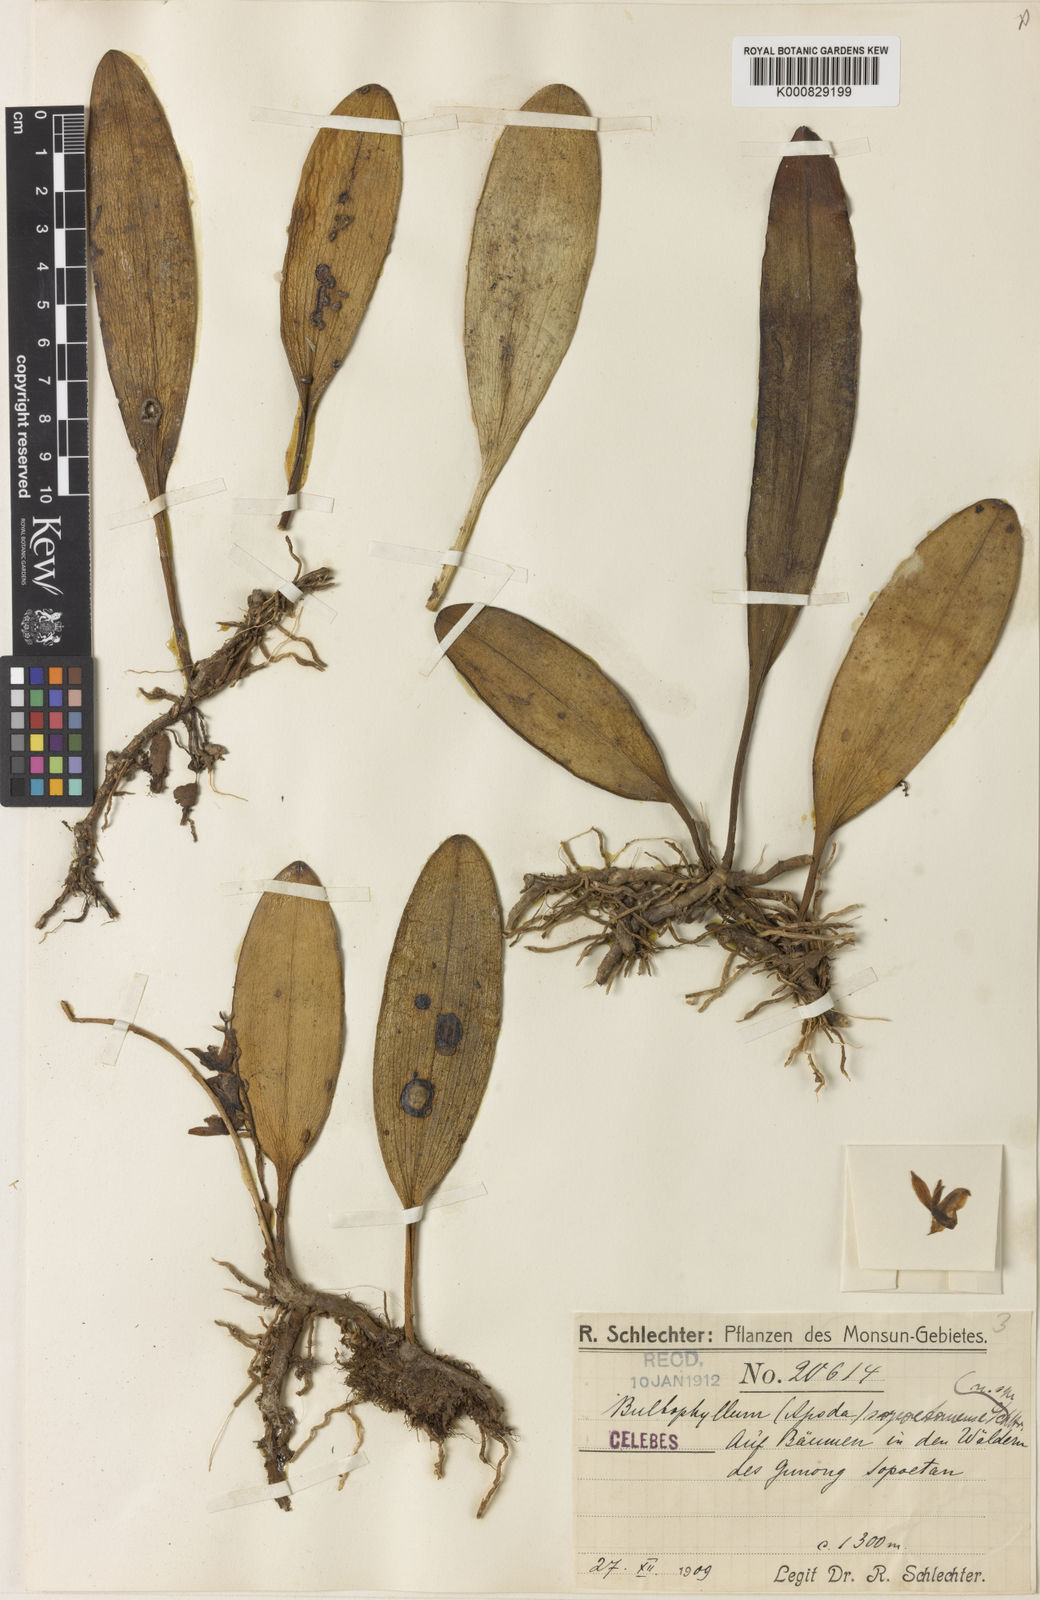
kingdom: Plantae
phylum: Tracheophyta
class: Liliopsida
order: Asparagales
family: Orchidaceae
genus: Bulbophyllum
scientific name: Bulbophyllum sopoetanense
